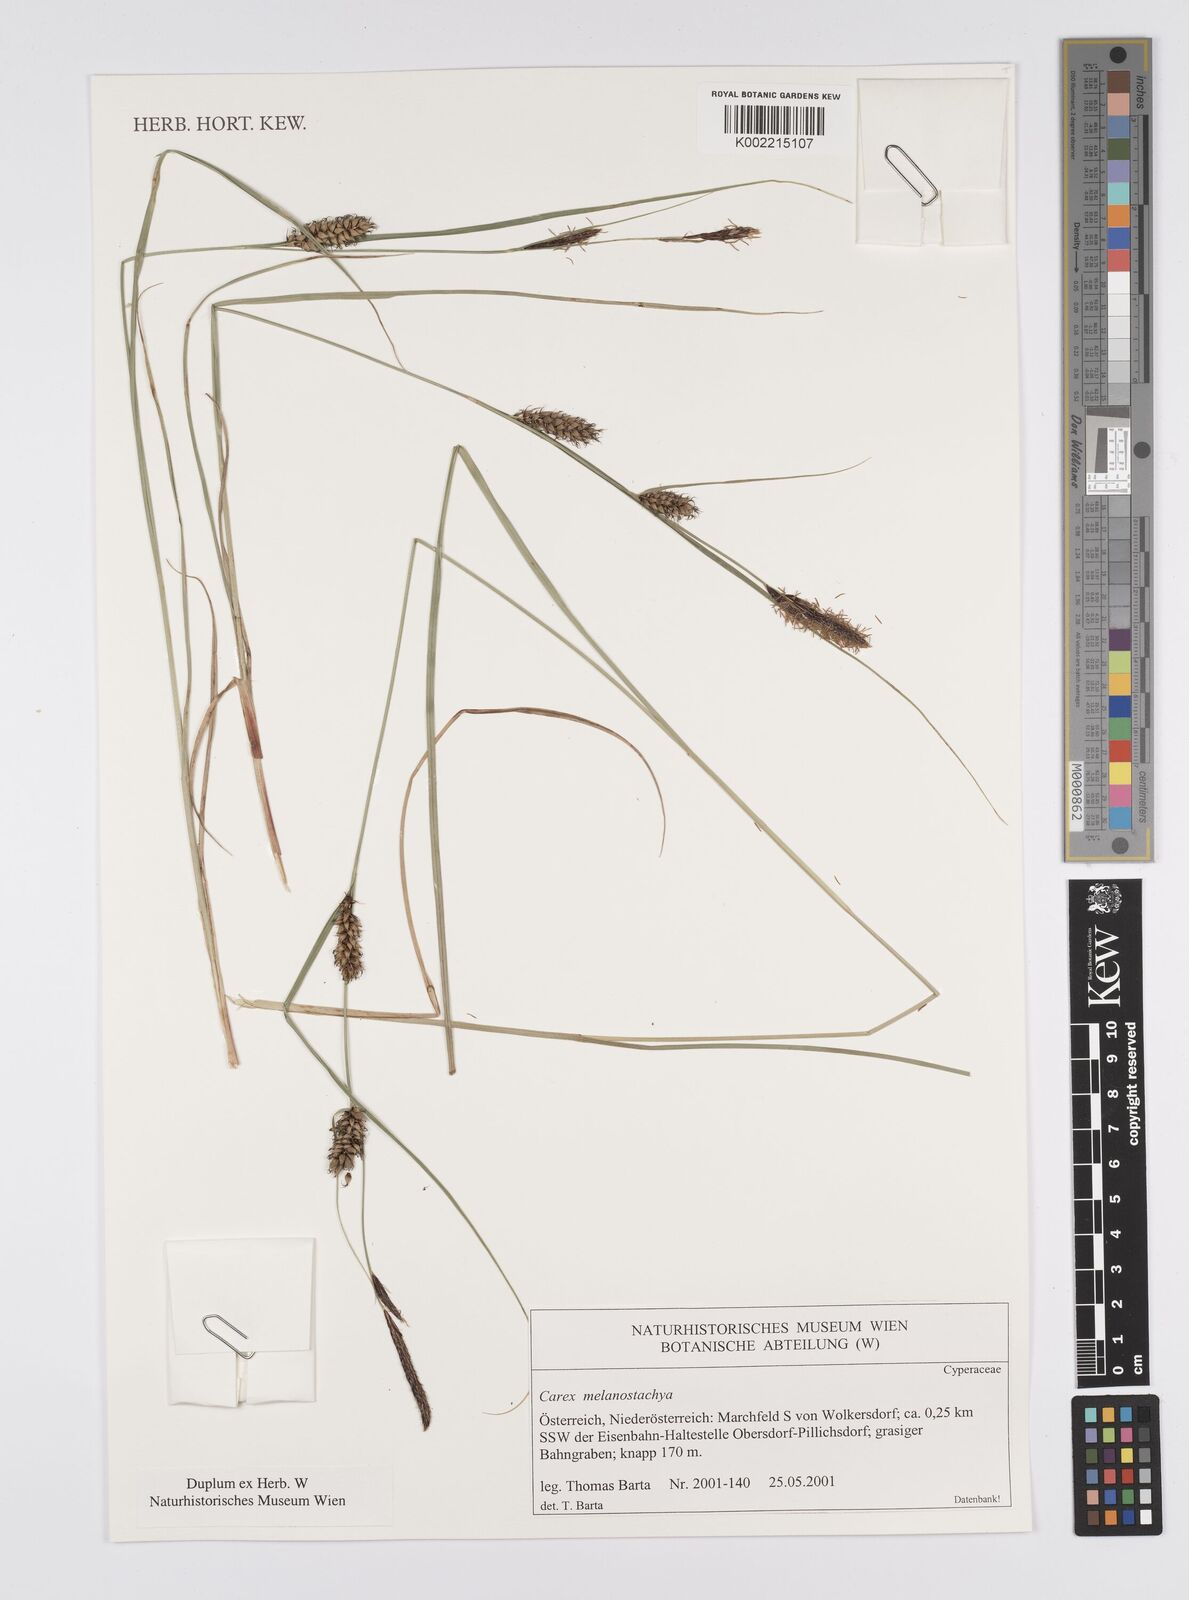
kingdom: Plantae
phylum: Tracheophyta
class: Liliopsida
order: Poales
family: Cyperaceae
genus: Carex
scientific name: Carex melanostachya
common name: Black-spiked sedge
